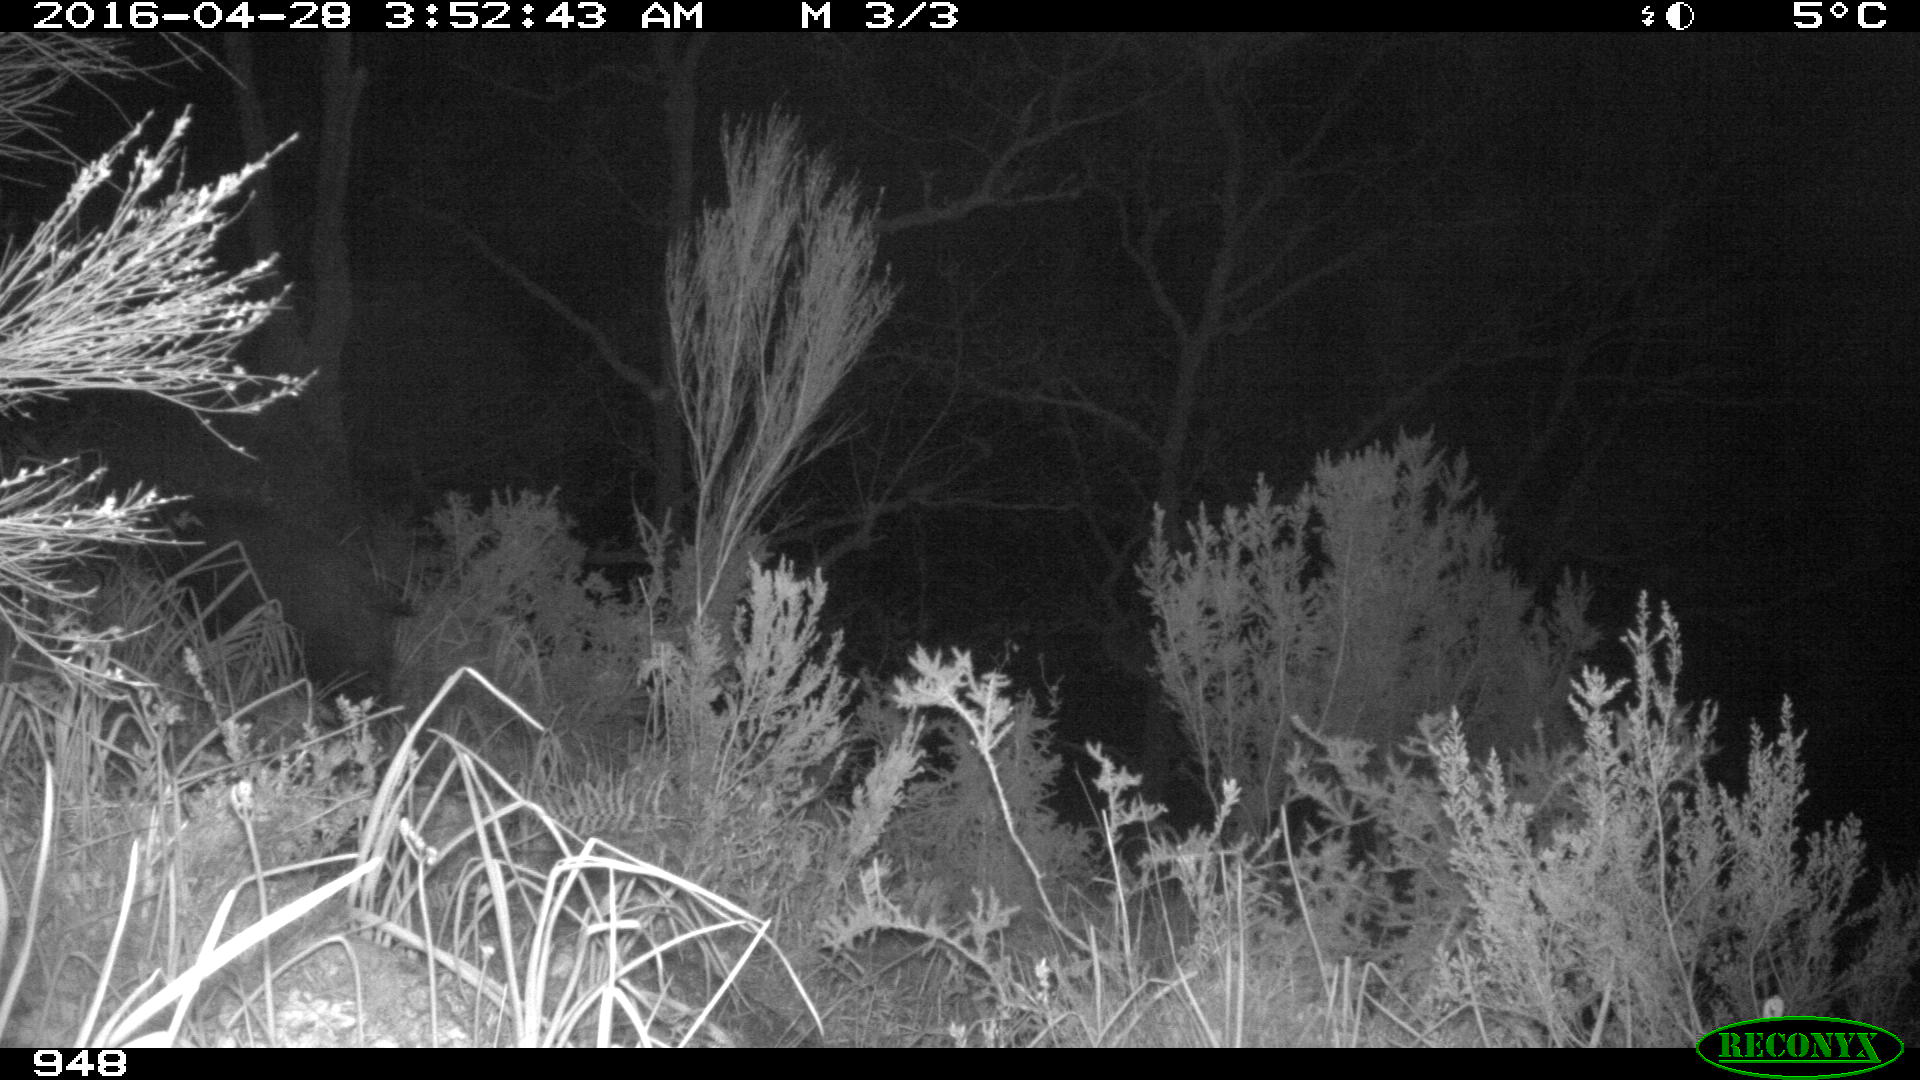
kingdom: Animalia
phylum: Chordata
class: Mammalia
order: Artiodactyla
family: Suidae
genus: Sus
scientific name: Sus scrofa
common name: Wild boar
